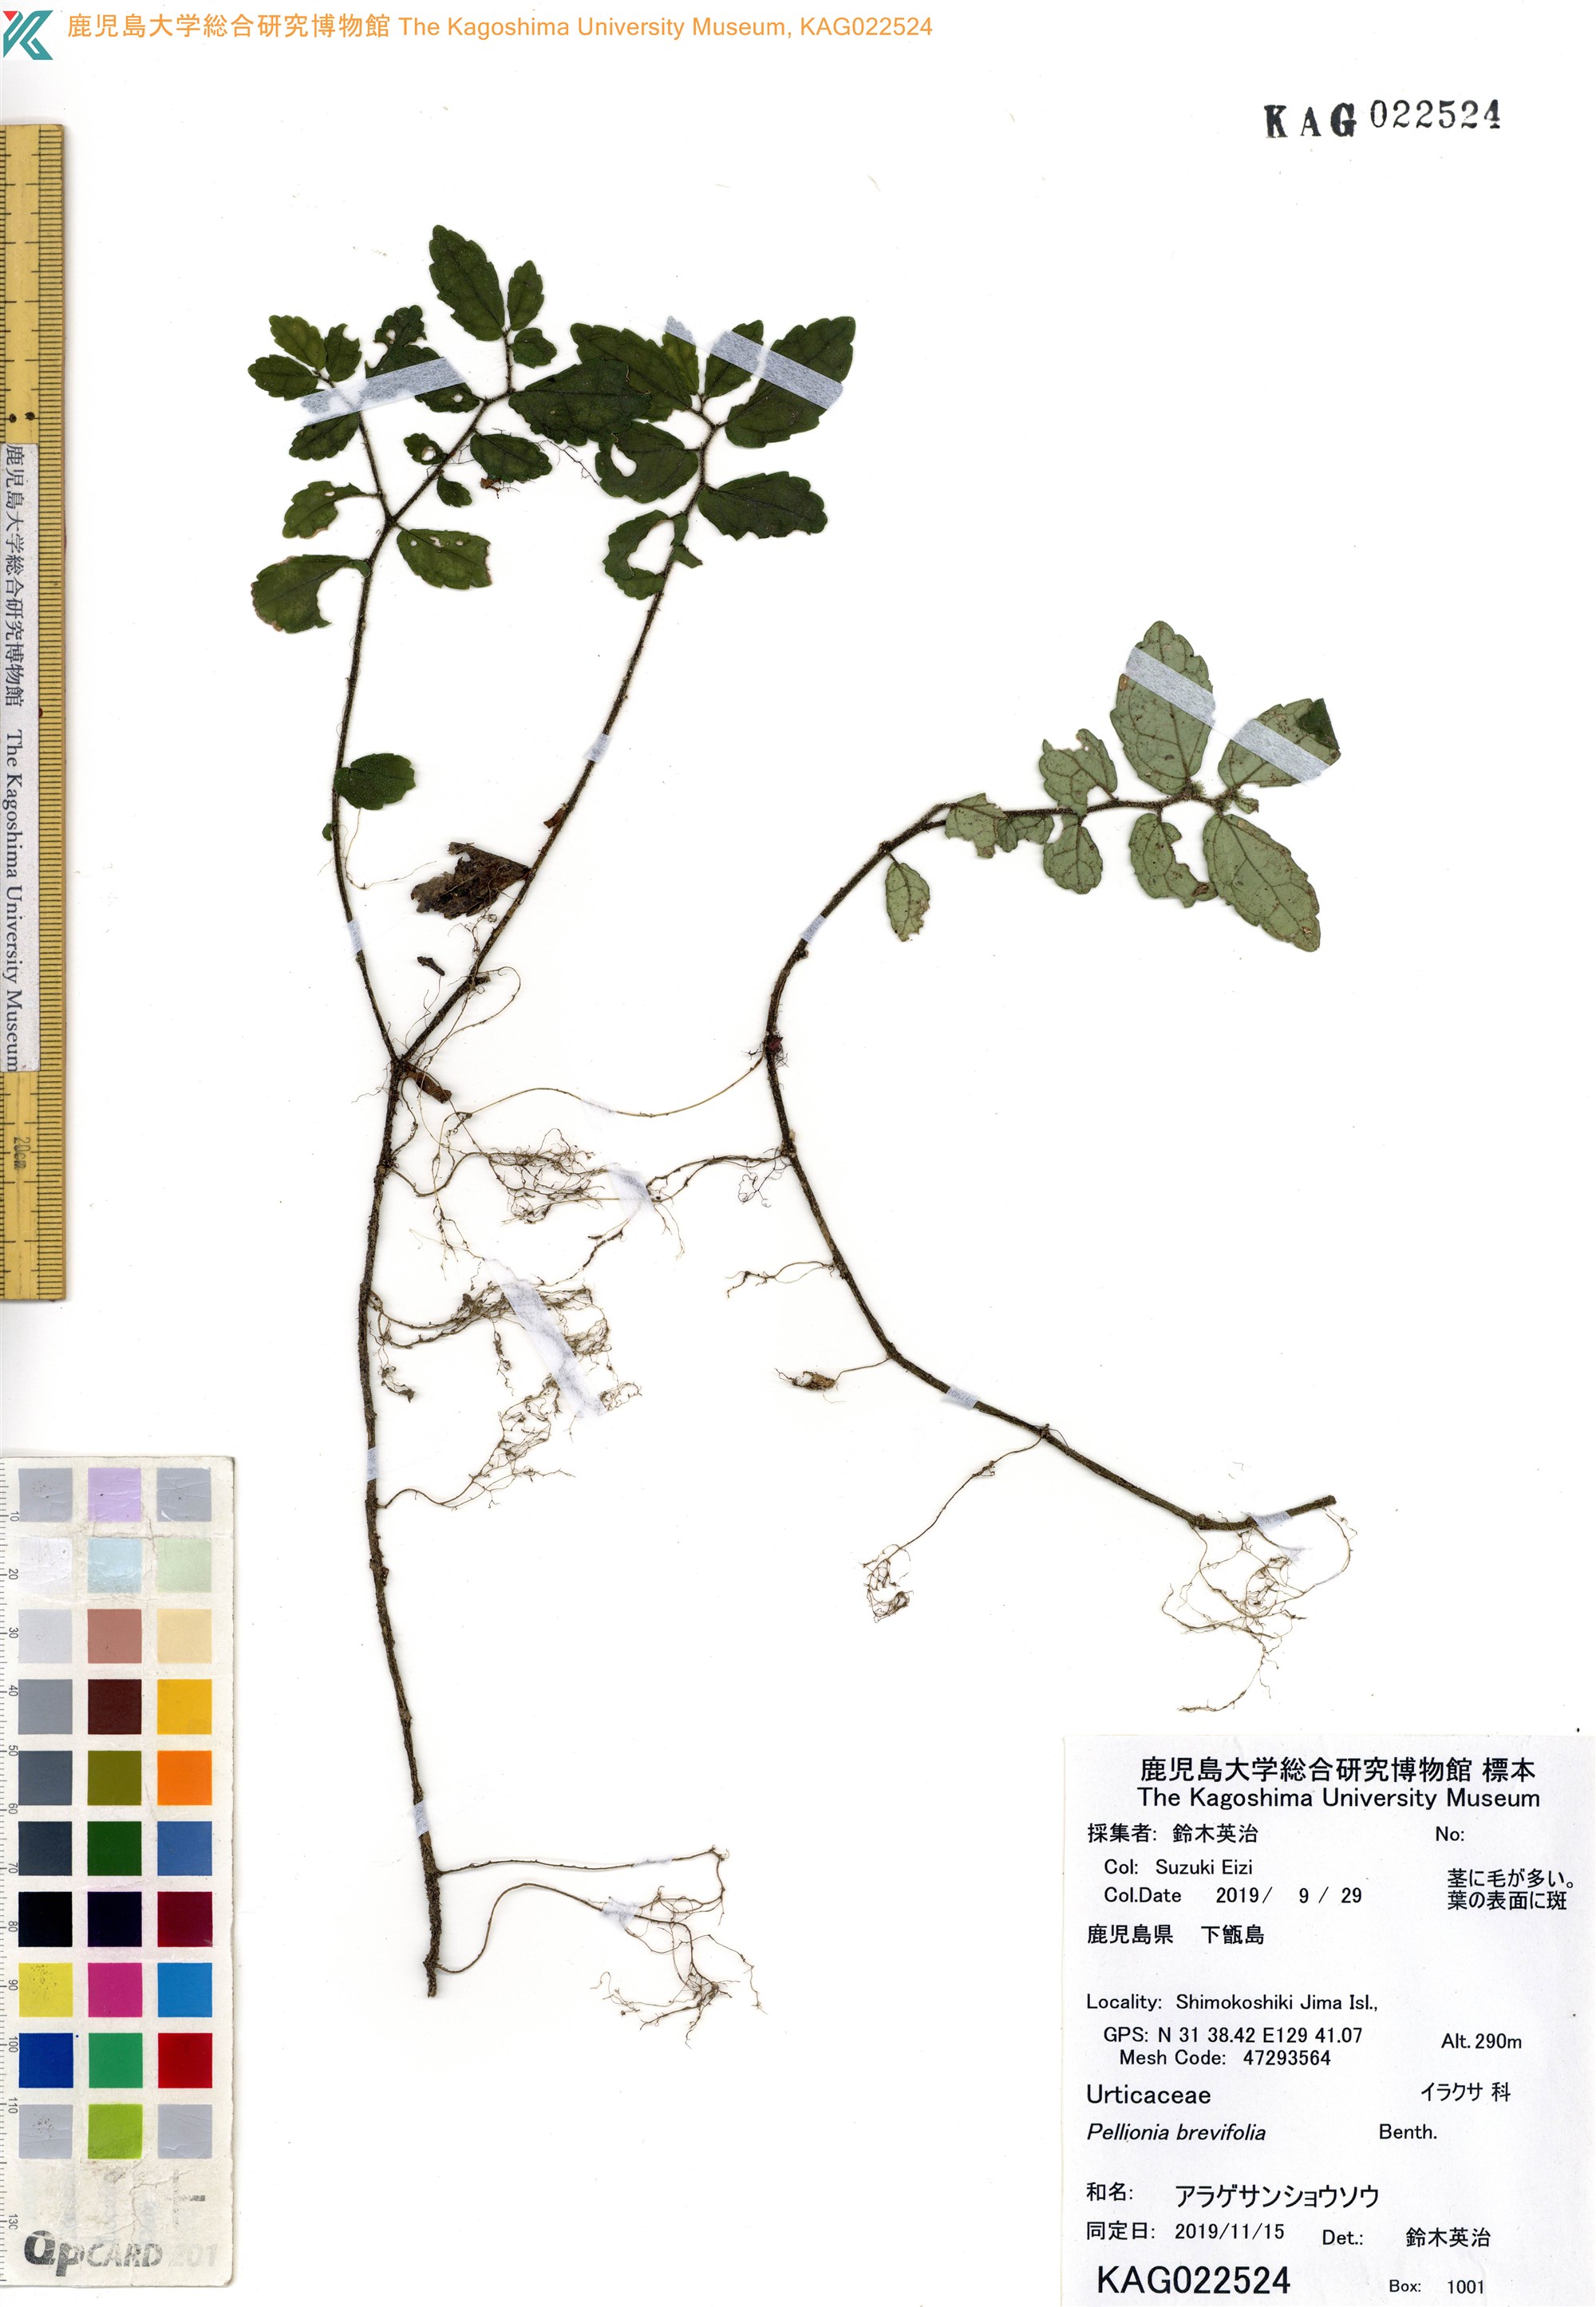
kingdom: Plantae
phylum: Tracheophyta
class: Magnoliopsida
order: Rosales
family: Urticaceae
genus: Elatostema
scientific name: Elatostema brevifolium
